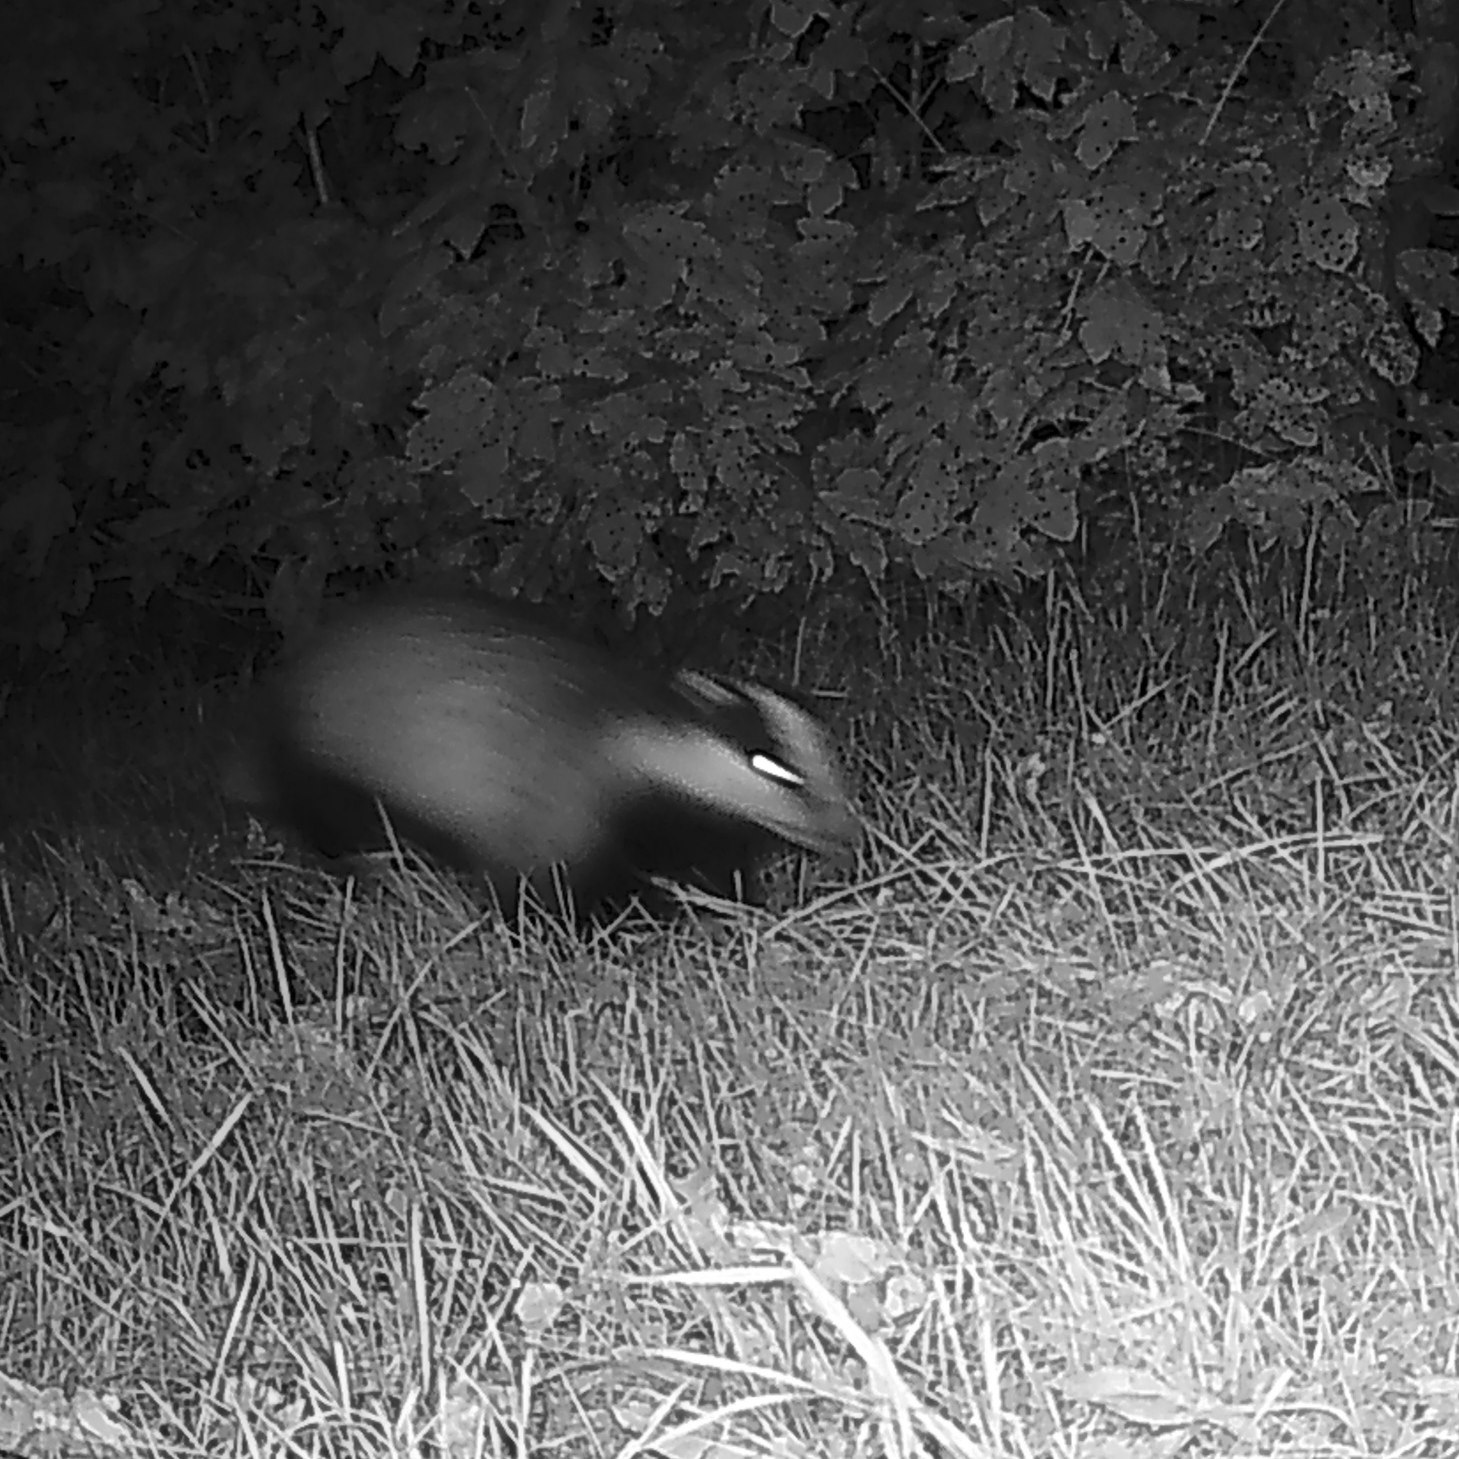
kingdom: Animalia
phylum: Chordata
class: Mammalia
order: Carnivora
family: Mustelidae
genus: Meles
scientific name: Meles meles
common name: Grævling
